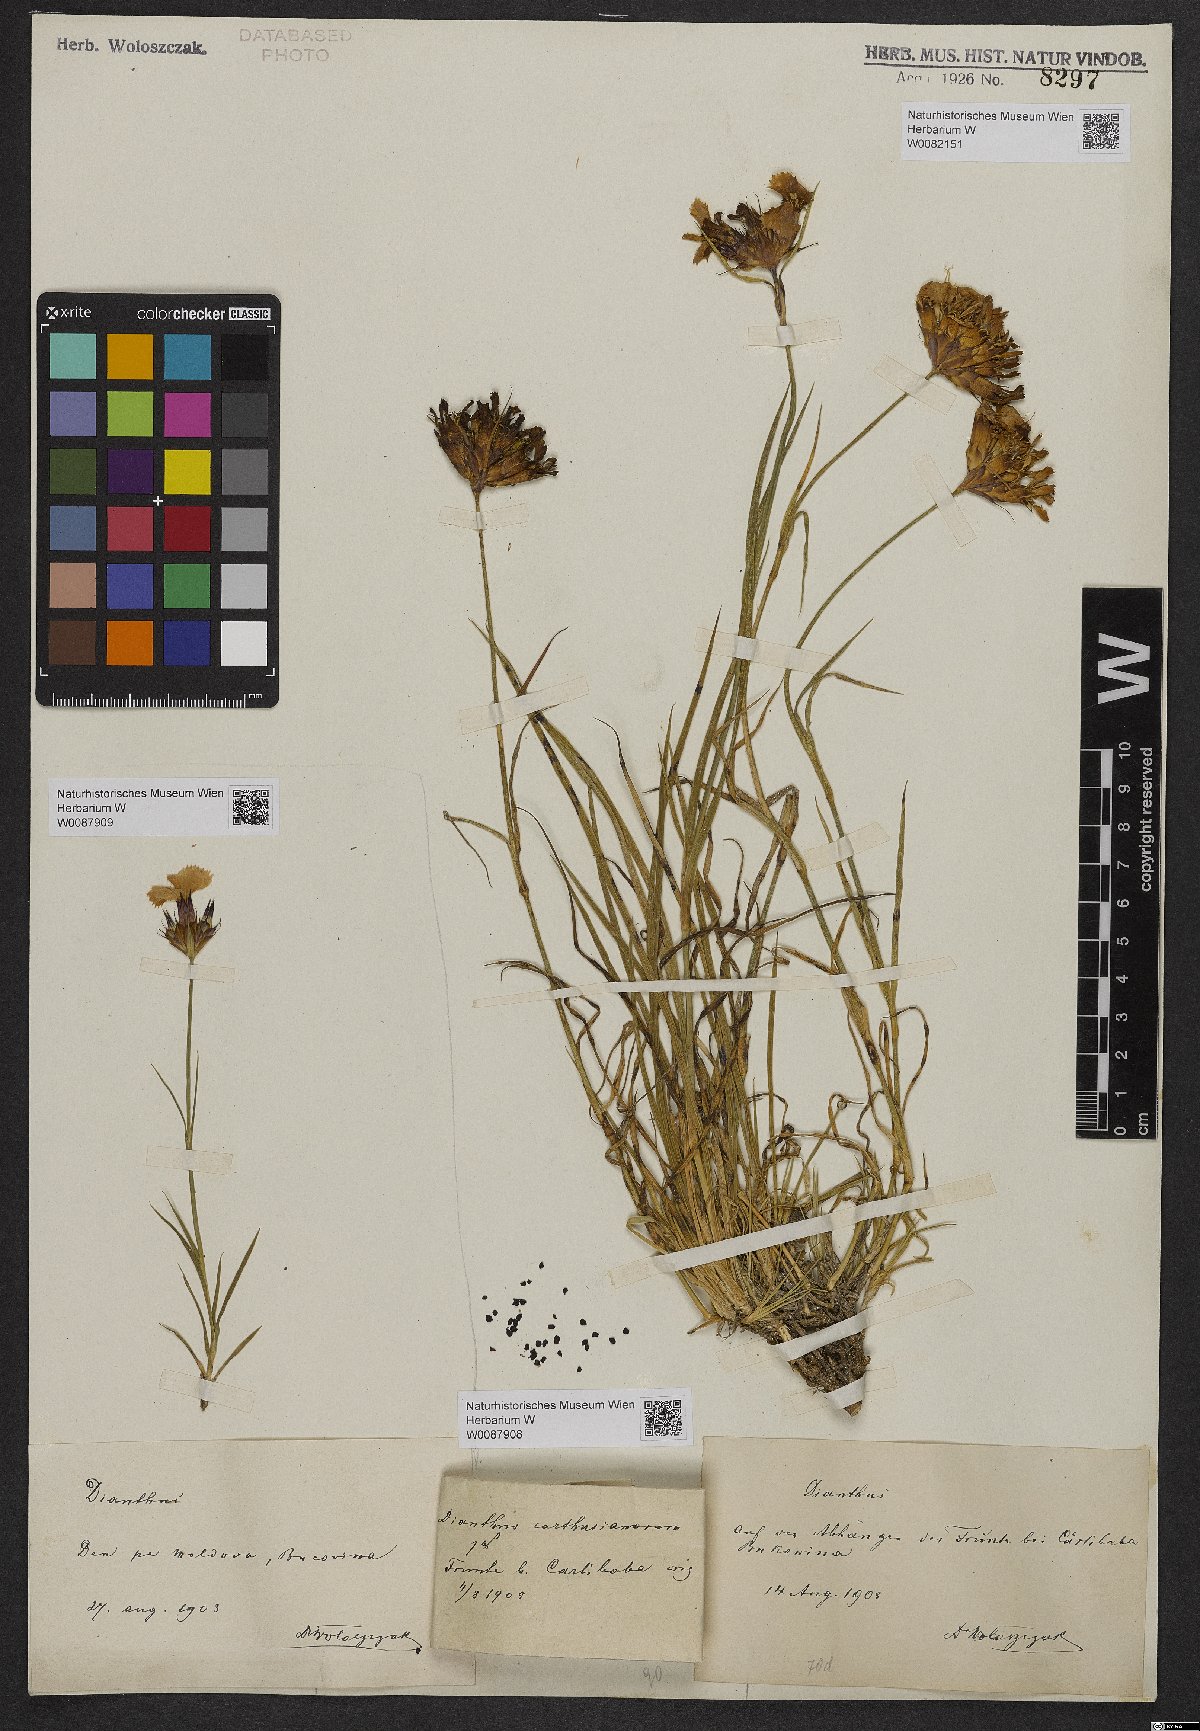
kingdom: Plantae
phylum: Tracheophyta
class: Magnoliopsida
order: Caryophyllales
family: Caryophyllaceae
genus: Dianthus
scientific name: Dianthus carthusianorum
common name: Carthusian pink
